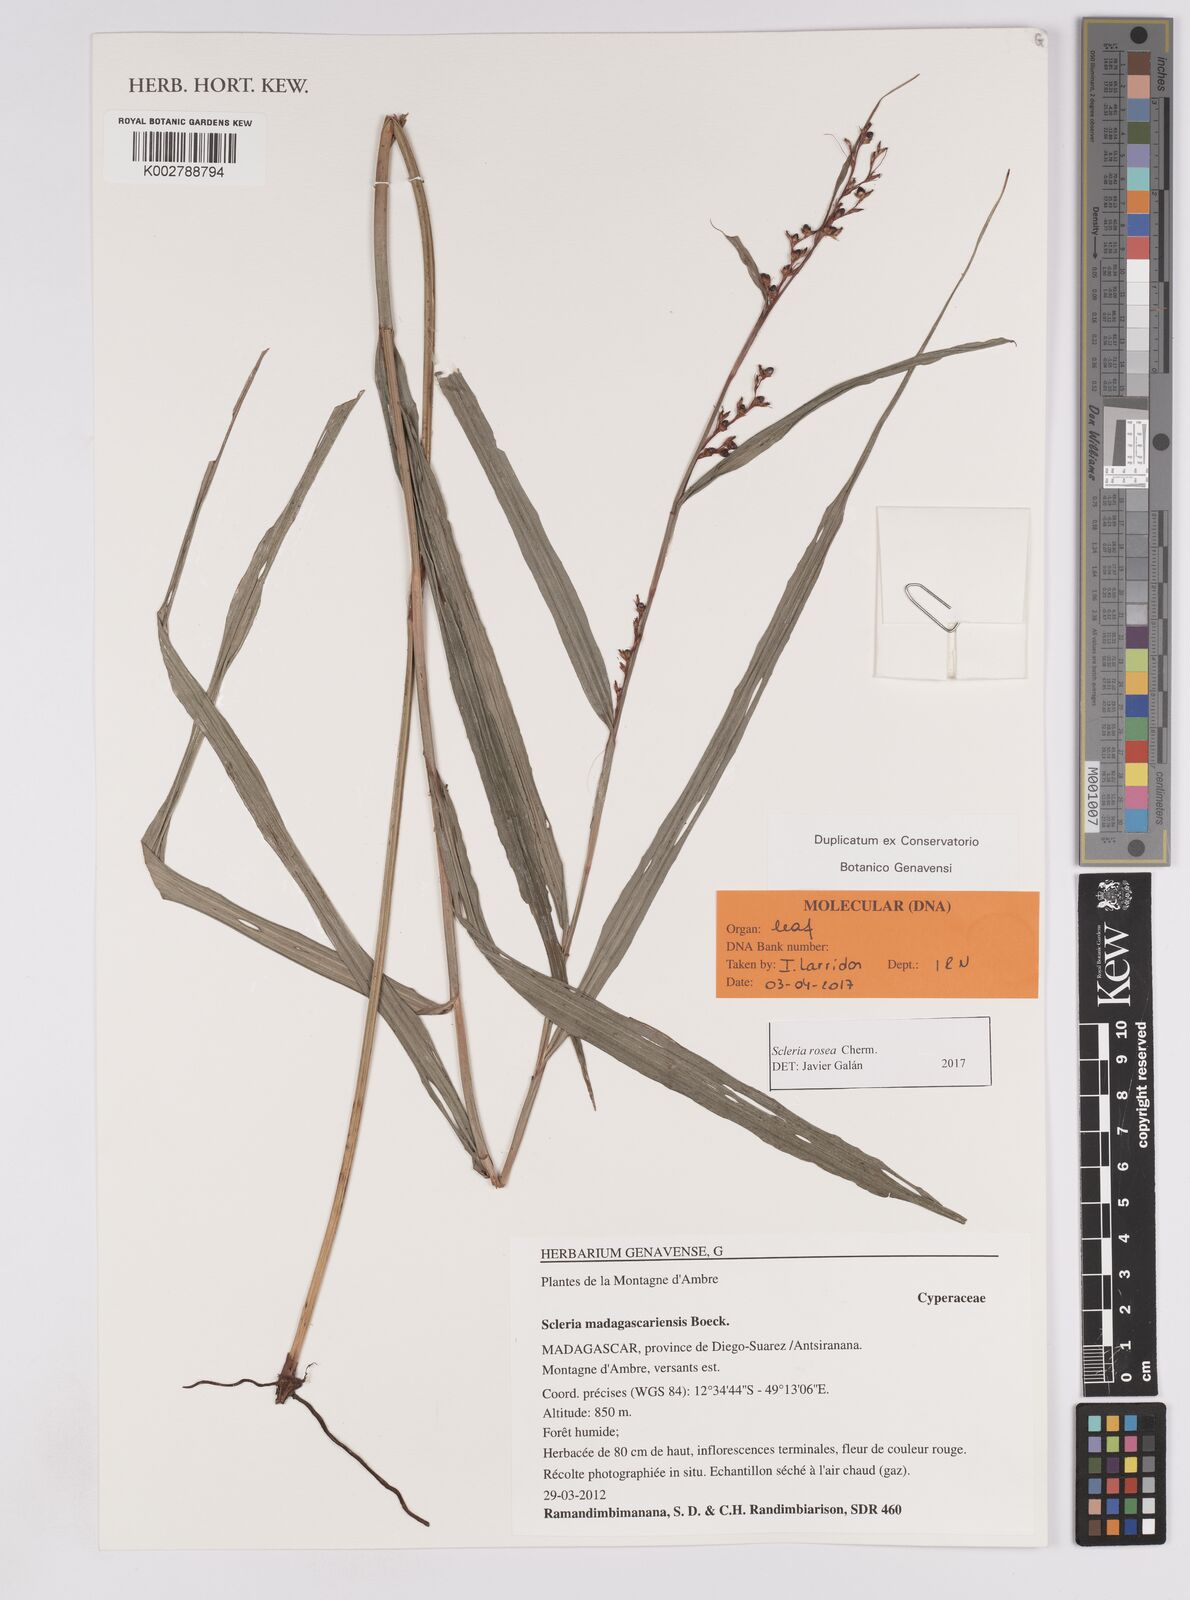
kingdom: Plantae
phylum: Tracheophyta
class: Liliopsida
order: Poales
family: Cyperaceae
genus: Scleria
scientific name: Scleria trialata
